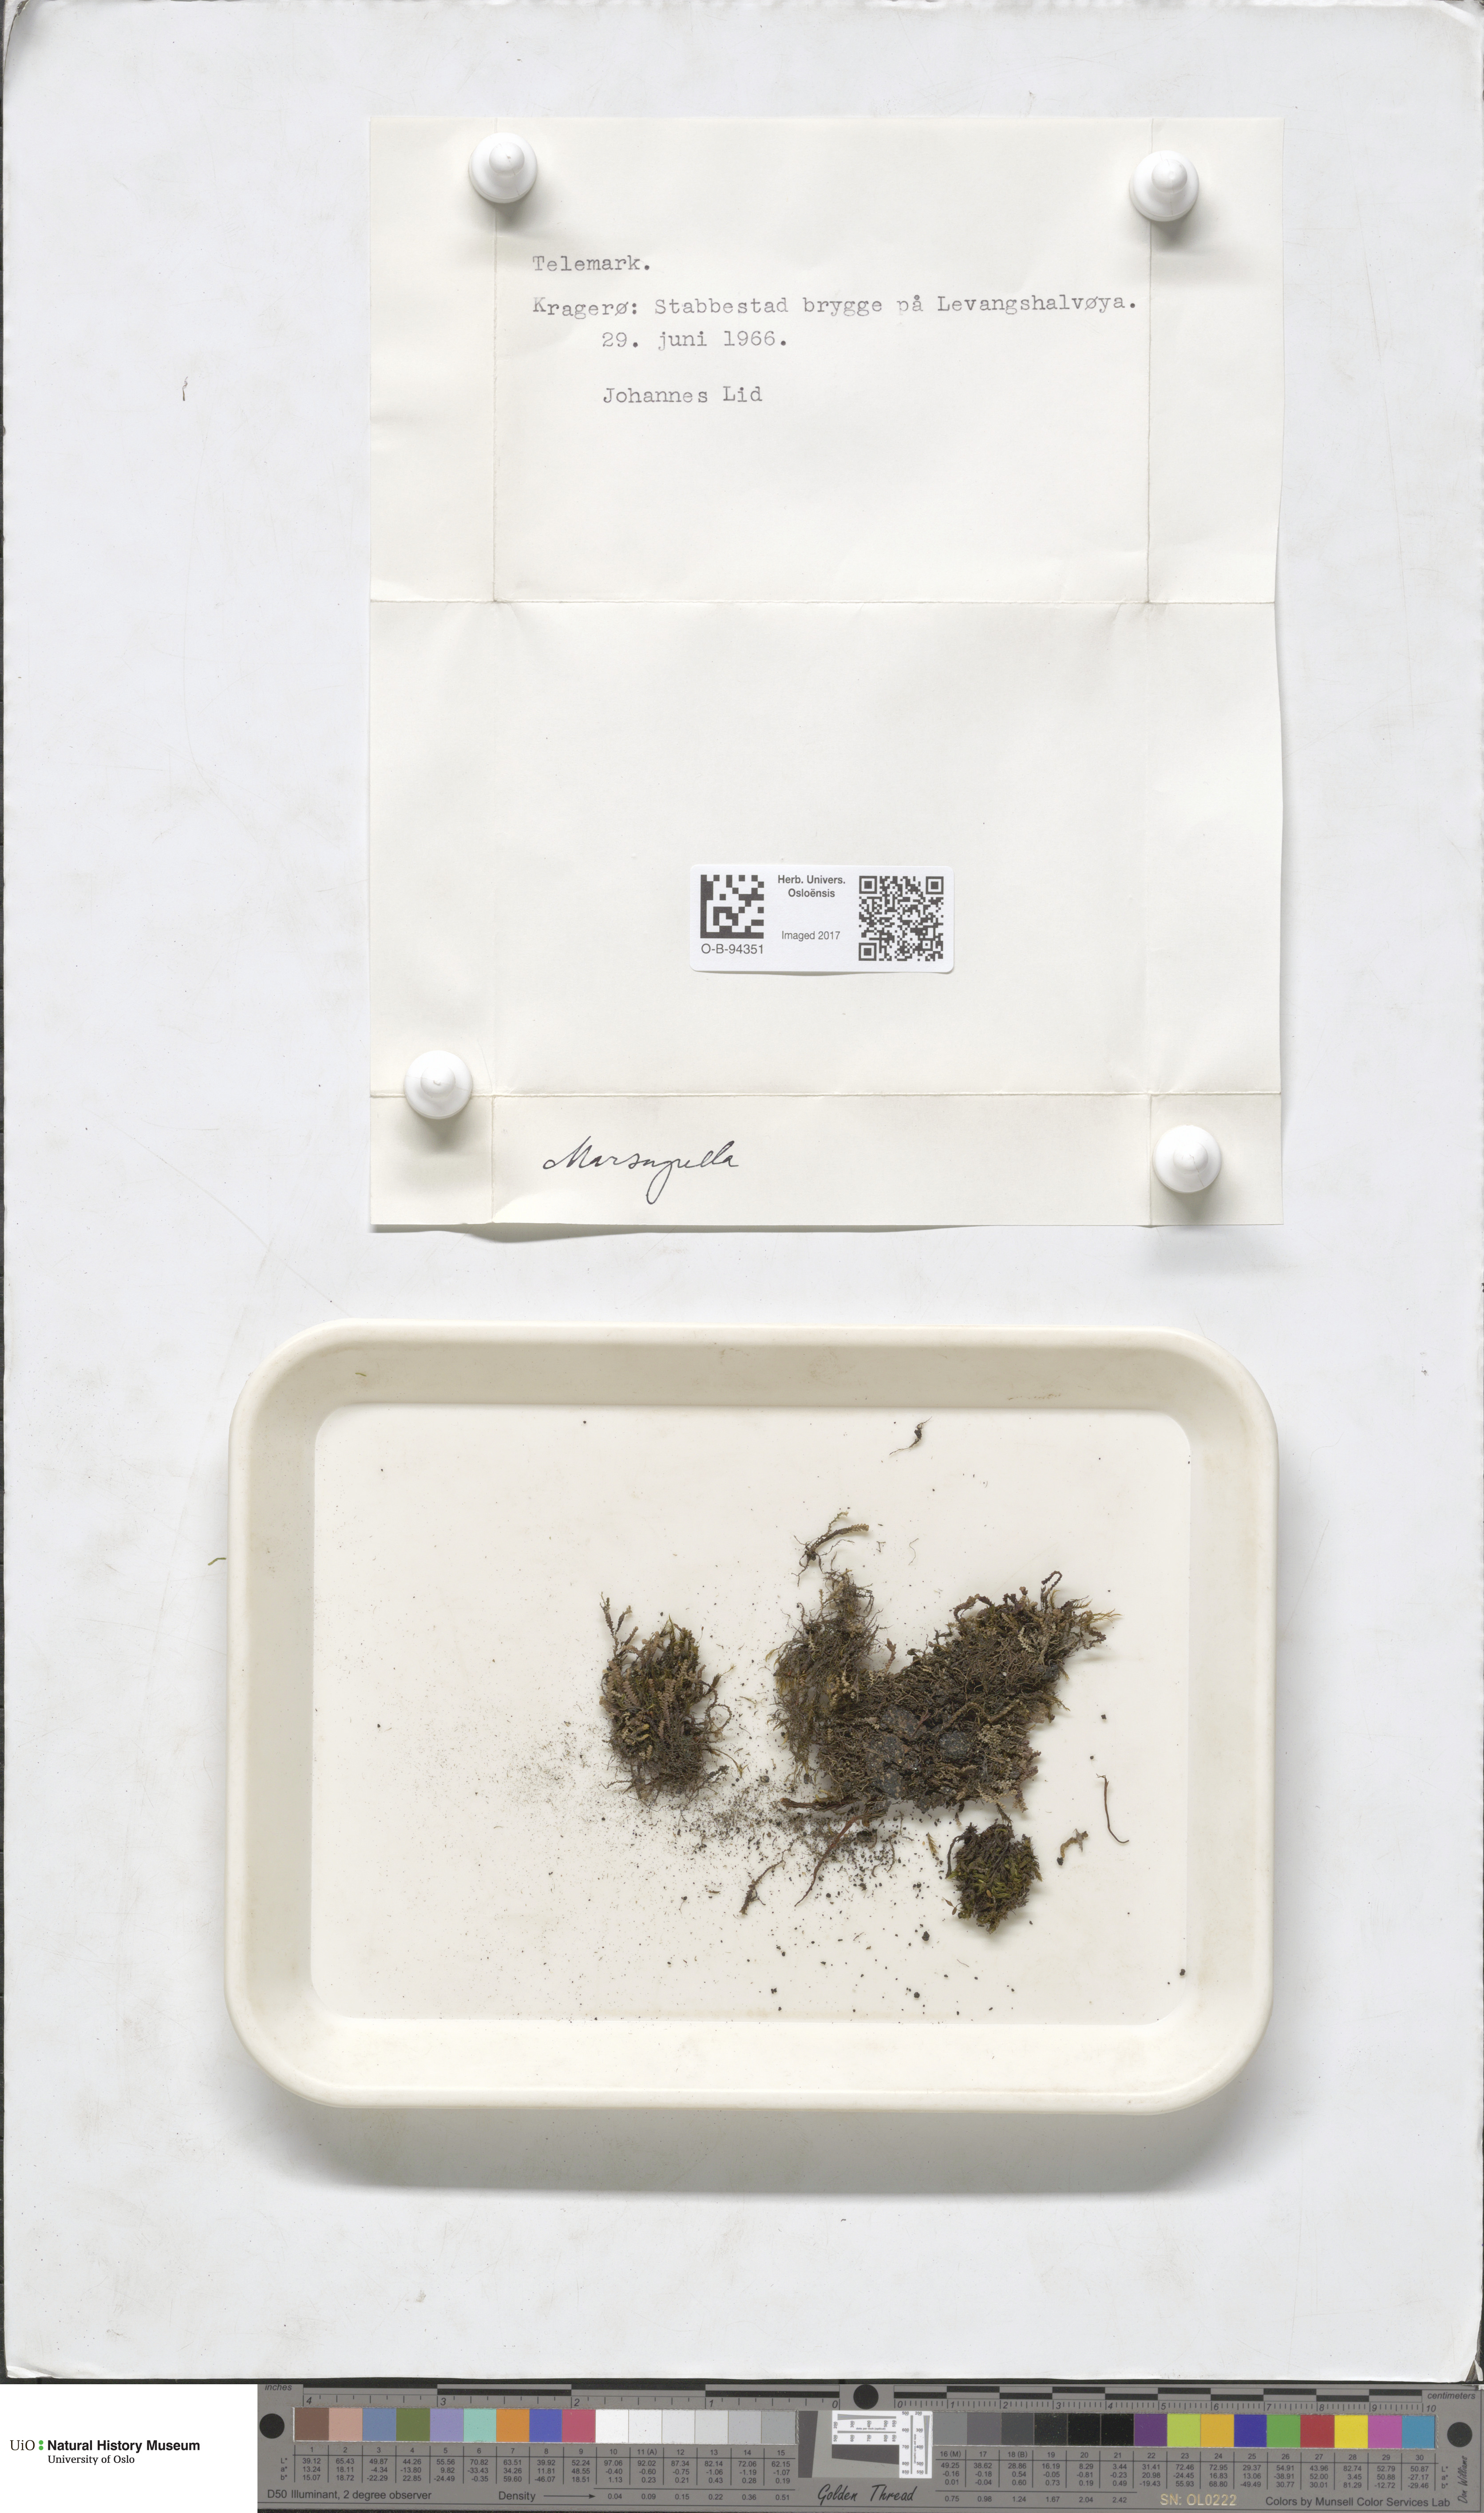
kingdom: Plantae
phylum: Marchantiophyta
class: Jungermanniopsida
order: Jungermanniales
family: Gymnomitriaceae
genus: Marsupella
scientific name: Marsupella
